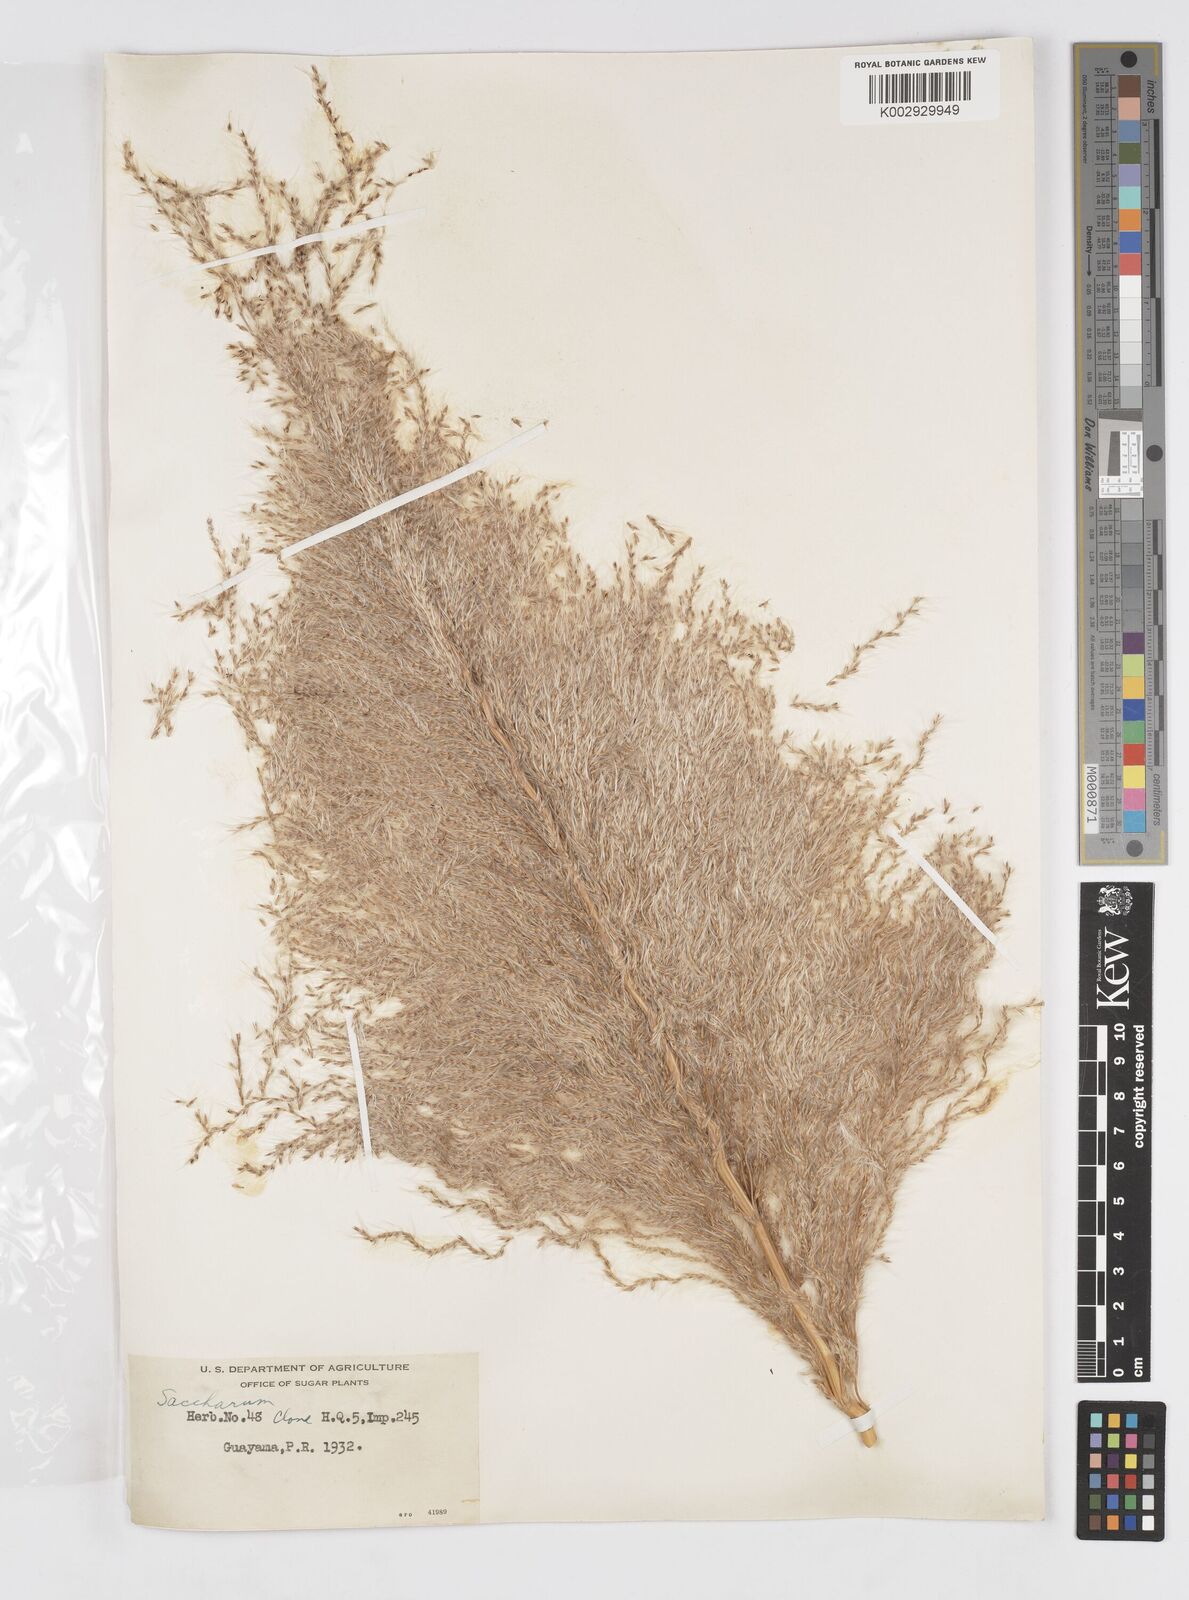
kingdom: Plantae
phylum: Tracheophyta
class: Liliopsida
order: Poales
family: Poaceae
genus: Saccharum
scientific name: Saccharum officinarum
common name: Sugarcane
